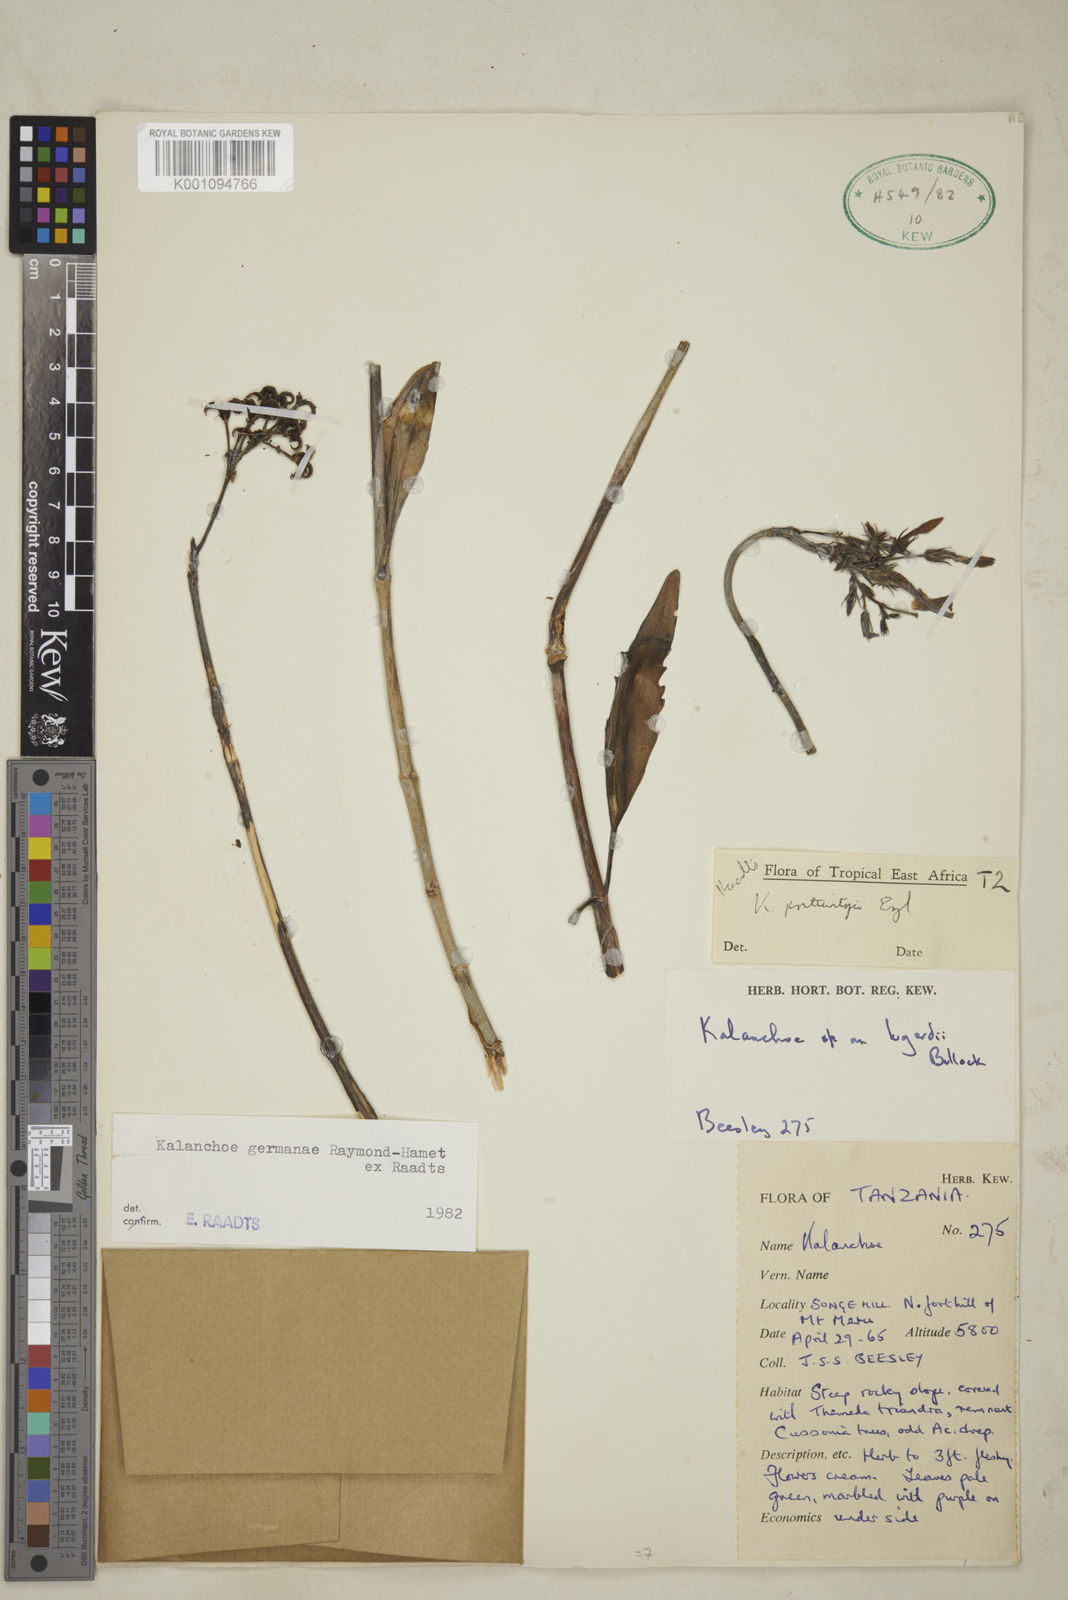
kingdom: Plantae
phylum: Tracheophyta
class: Magnoliopsida
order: Saxifragales
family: Crassulaceae
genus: Kalanchoe
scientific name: Kalanchoe germanae
